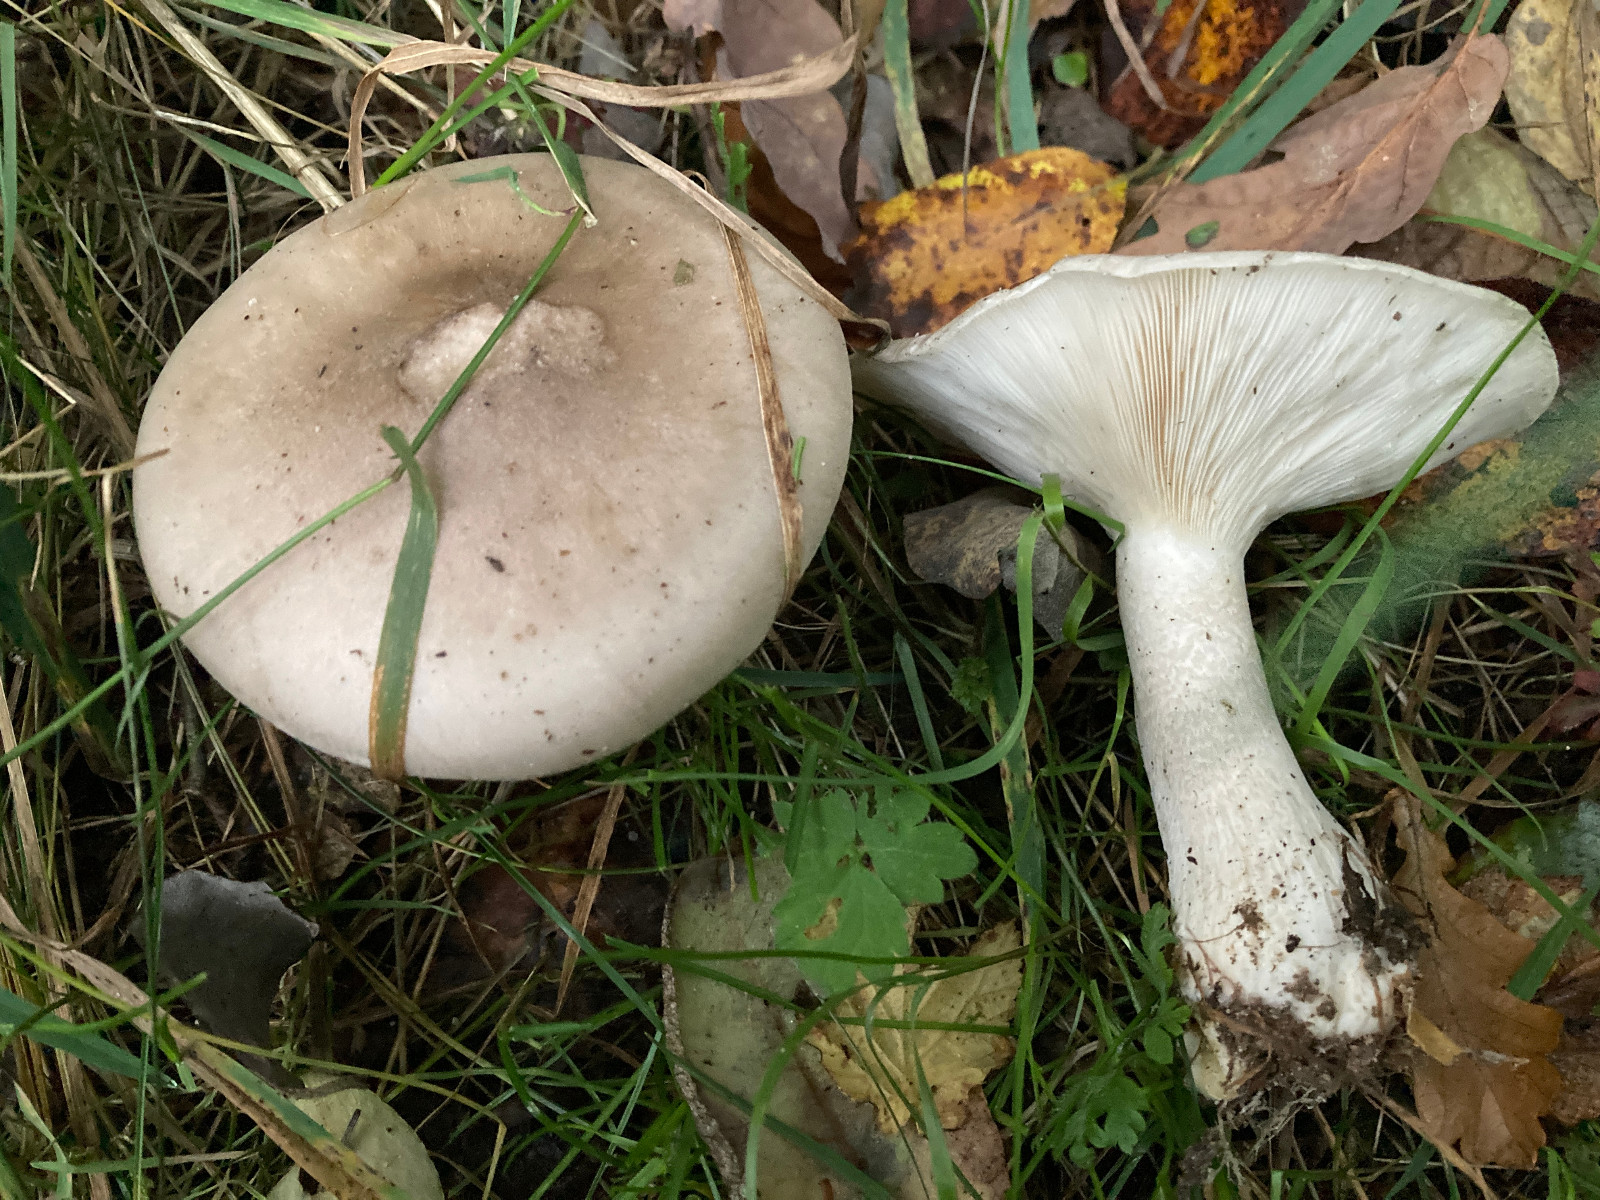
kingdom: Fungi
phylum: Basidiomycota
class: Agaricomycetes
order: Agaricales
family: Tricholomataceae
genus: Clitocybe
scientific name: Clitocybe nebularis
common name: tåge-tragthat
